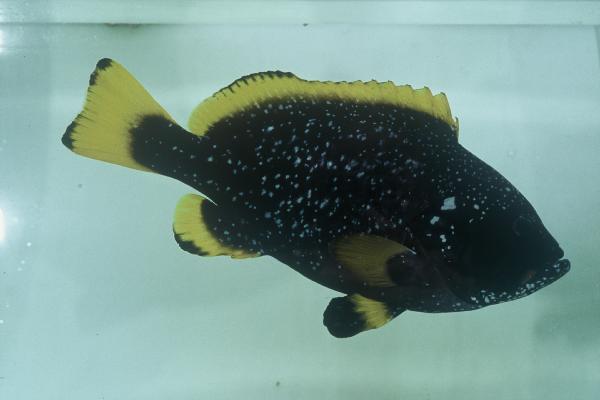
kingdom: Animalia
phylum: Chordata
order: Perciformes
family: Serranidae
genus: Epinephelus
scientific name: Epinephelus flavocaeruleus
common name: Blue and yellow grouper
